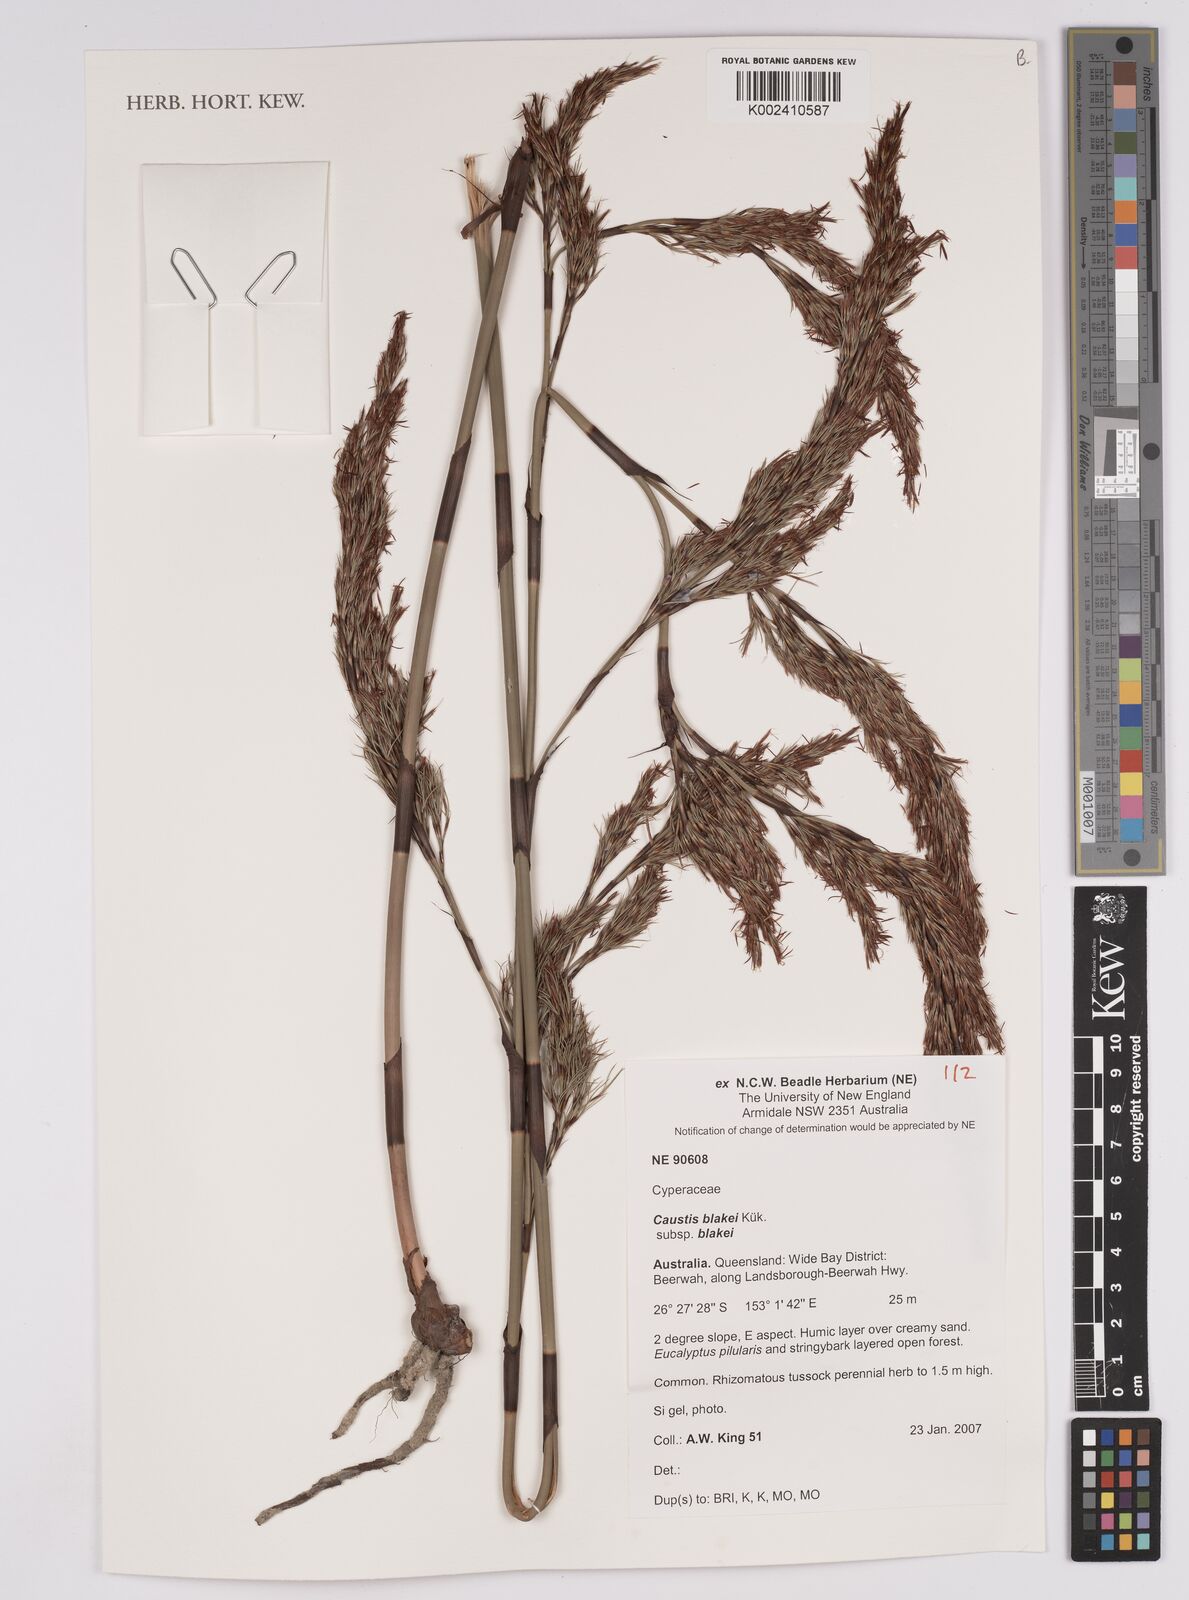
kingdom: Plantae
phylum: Tracheophyta
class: Liliopsida
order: Poales
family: Cyperaceae
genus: Caustis
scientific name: Caustis blakei
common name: Foxtail-fern
